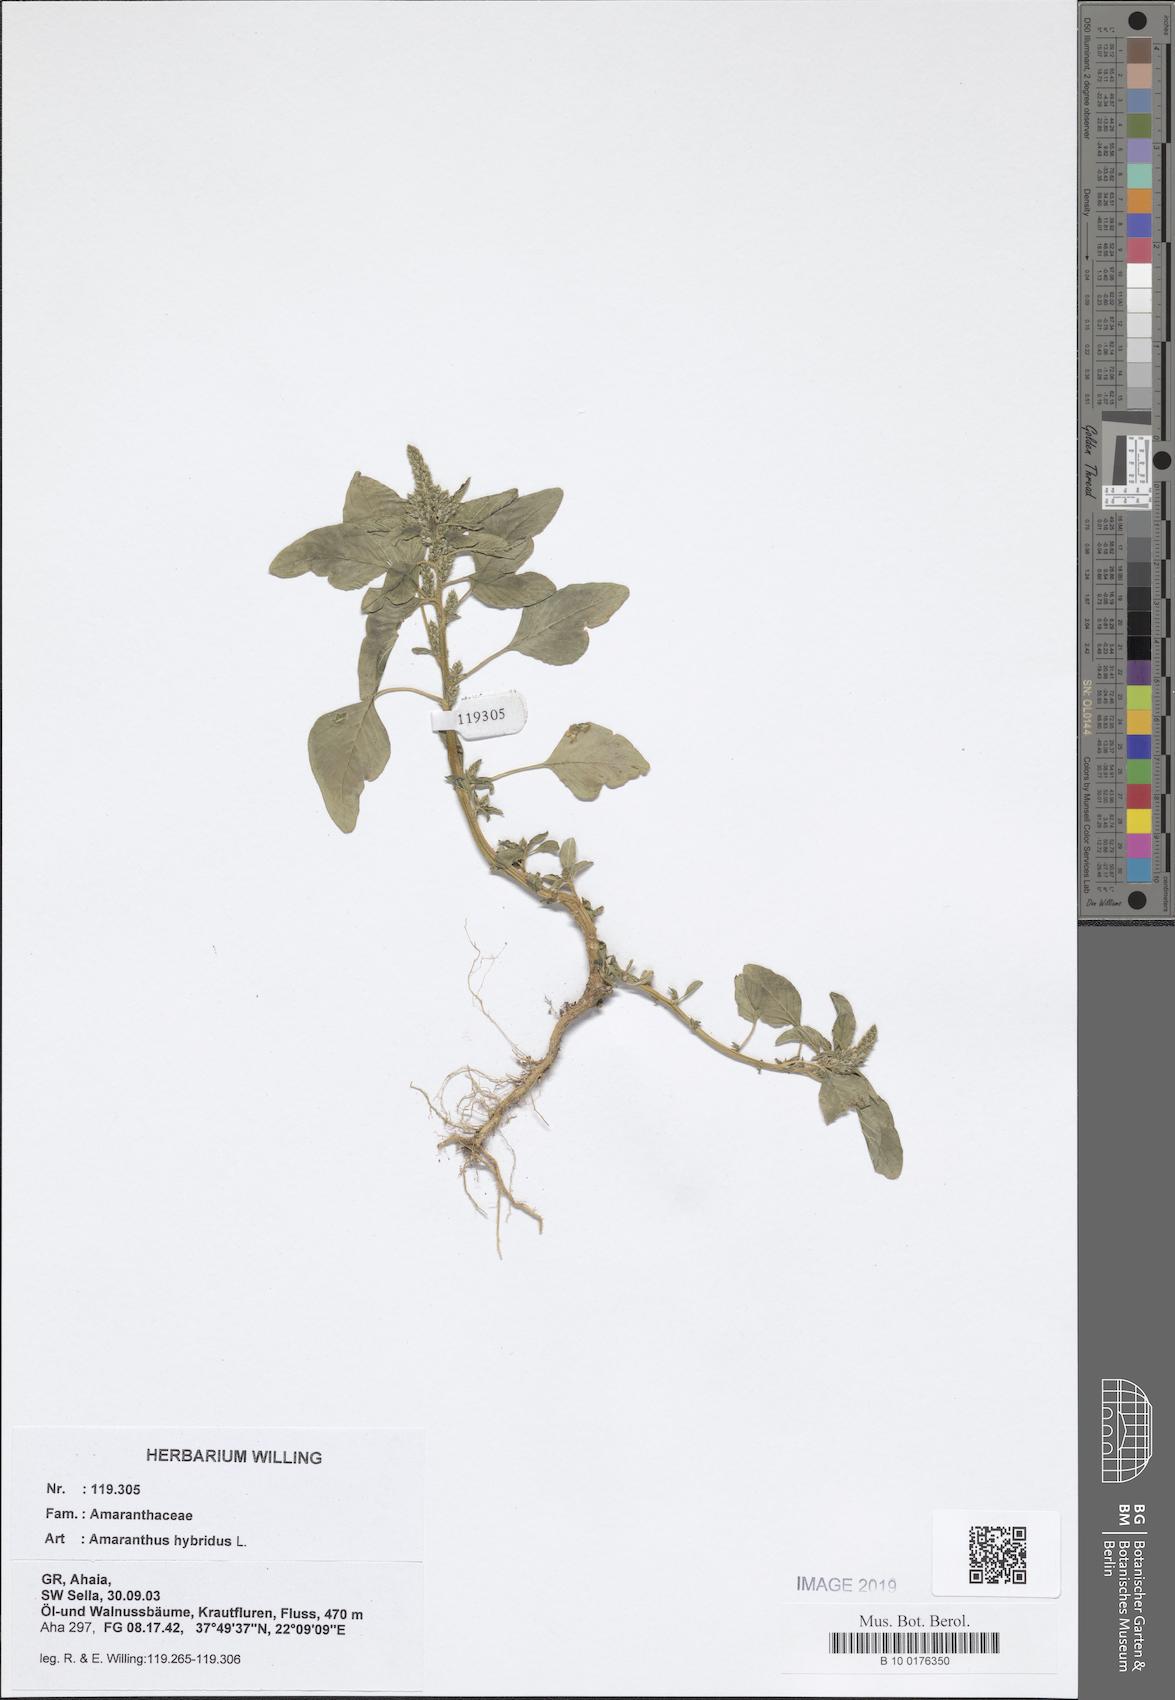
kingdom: Plantae
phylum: Tracheophyta
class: Magnoliopsida
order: Caryophyllales
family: Amaranthaceae
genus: Amaranthus
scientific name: Amaranthus hybridus
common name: Green amaranth
